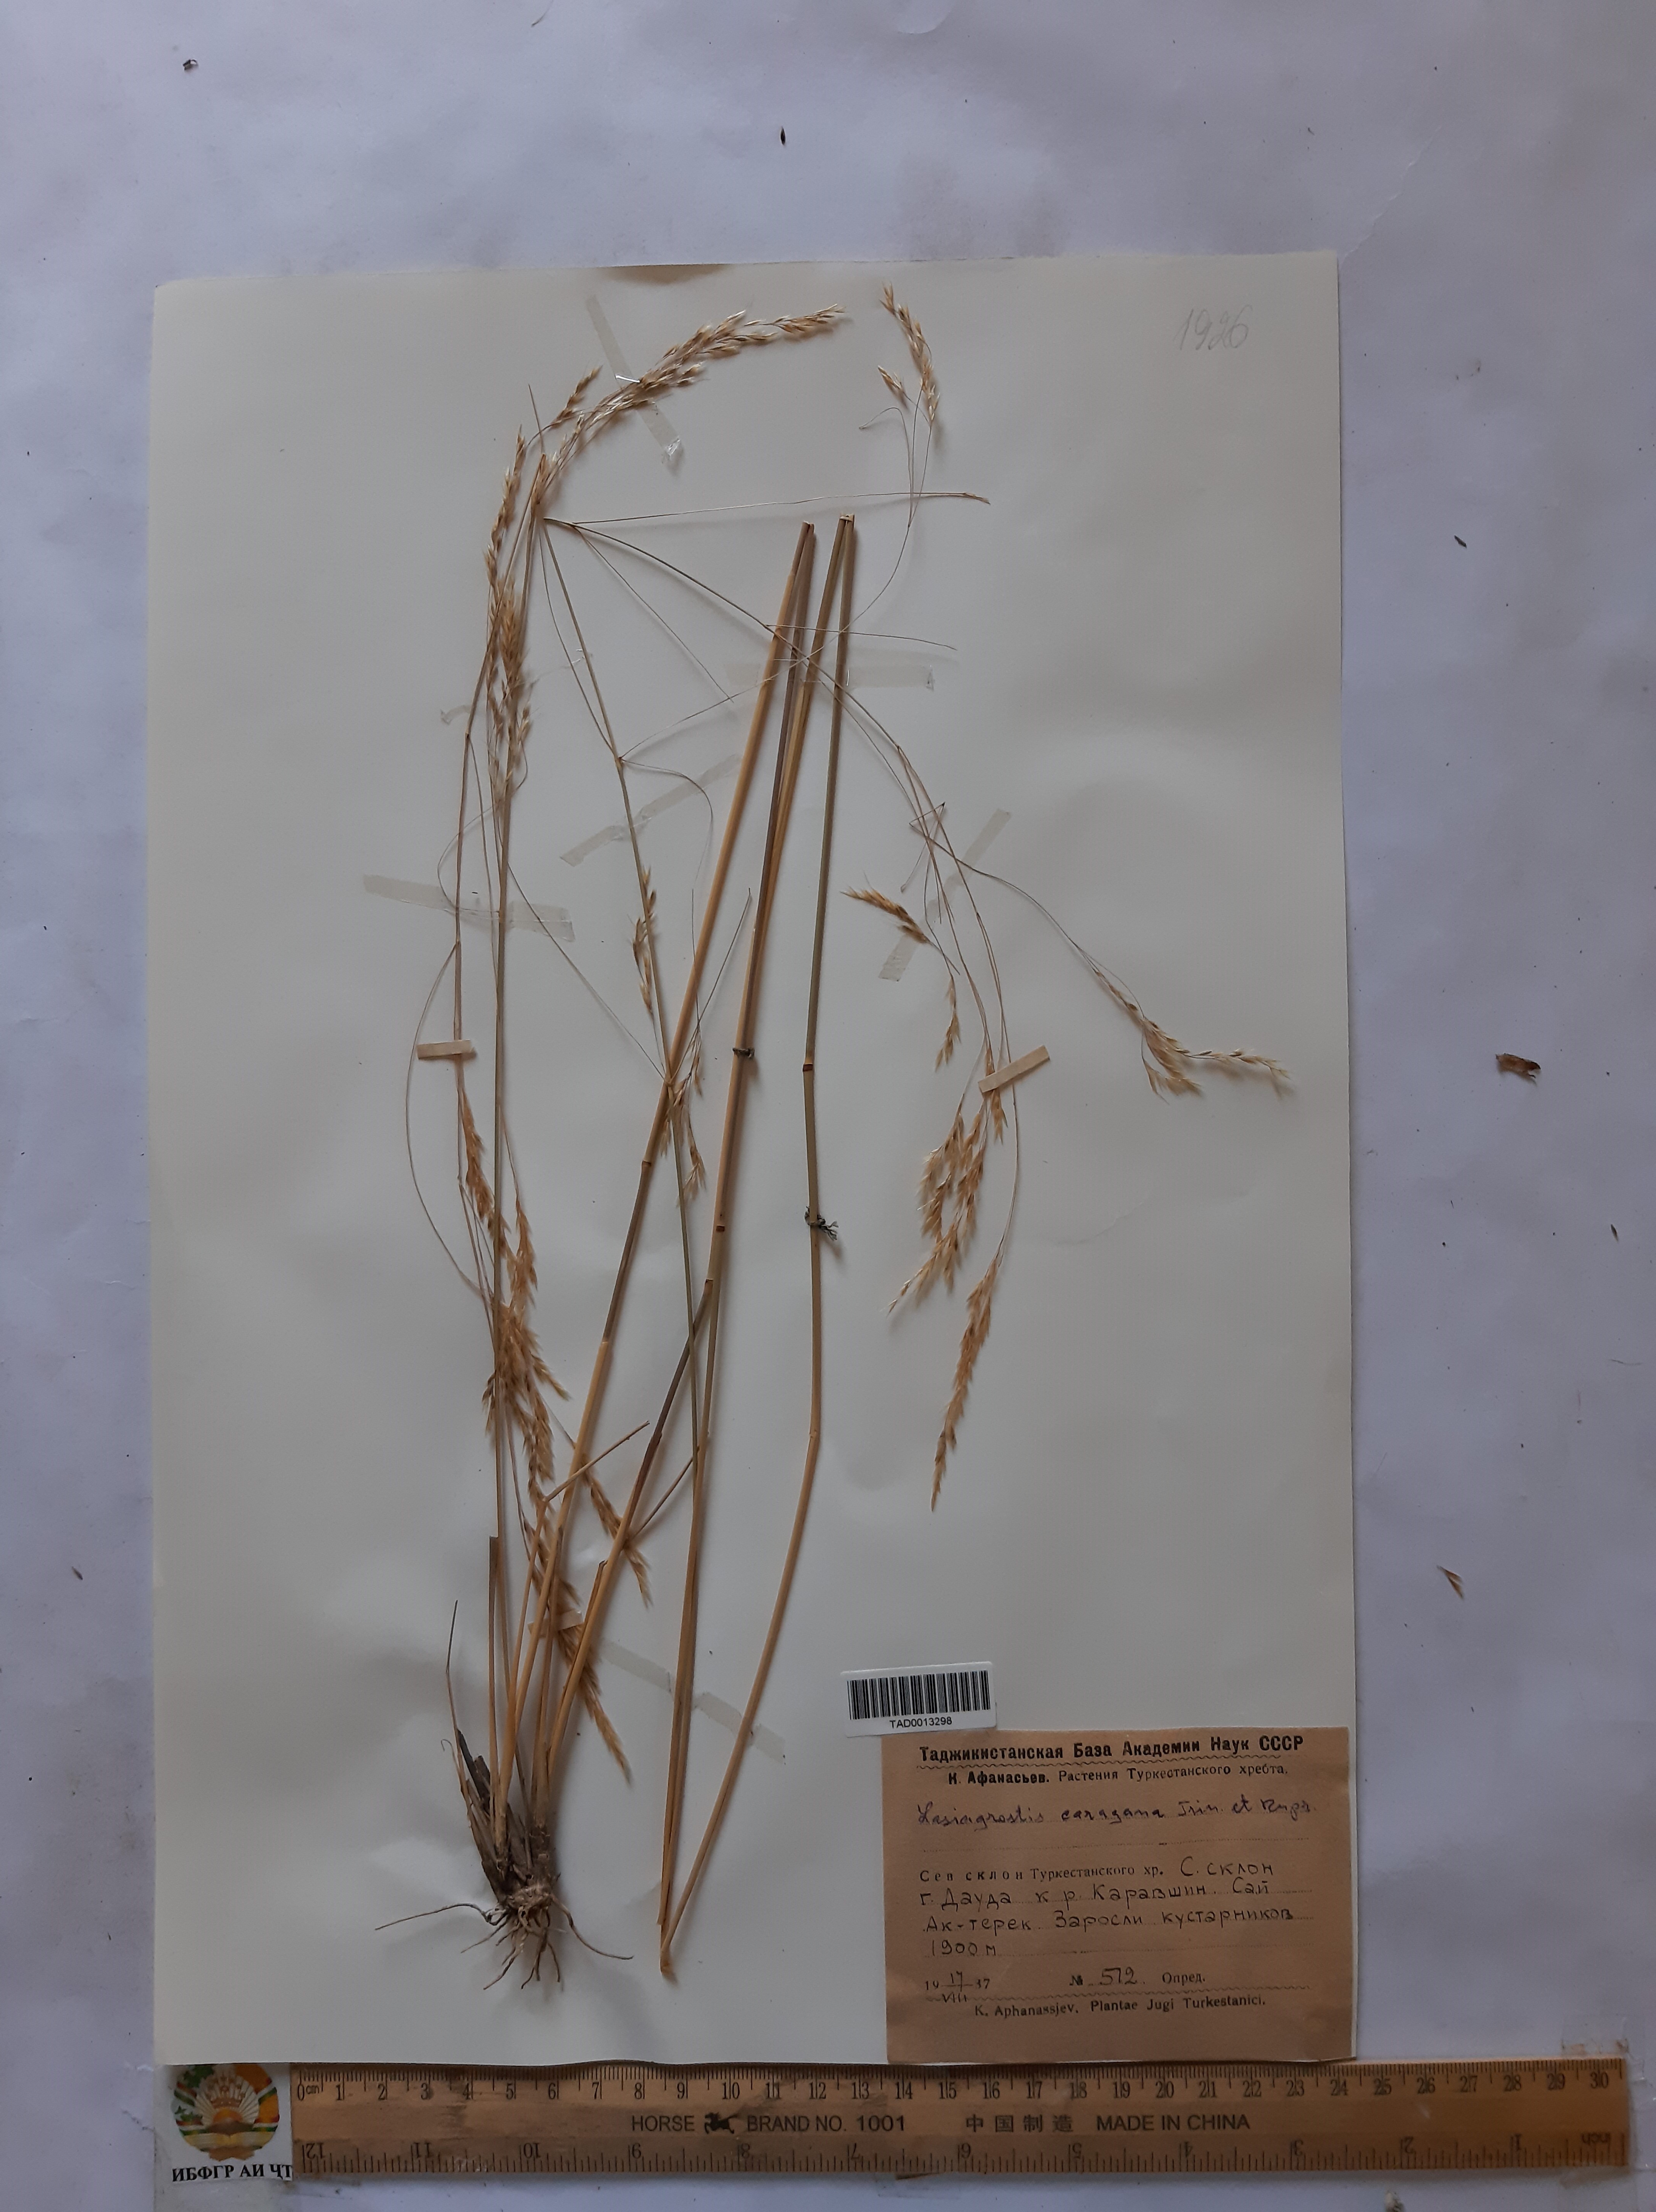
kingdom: Plantae
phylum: Tracheophyta
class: Liliopsida
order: Poales
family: Poaceae
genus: Stipa
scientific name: Stipa conferta
